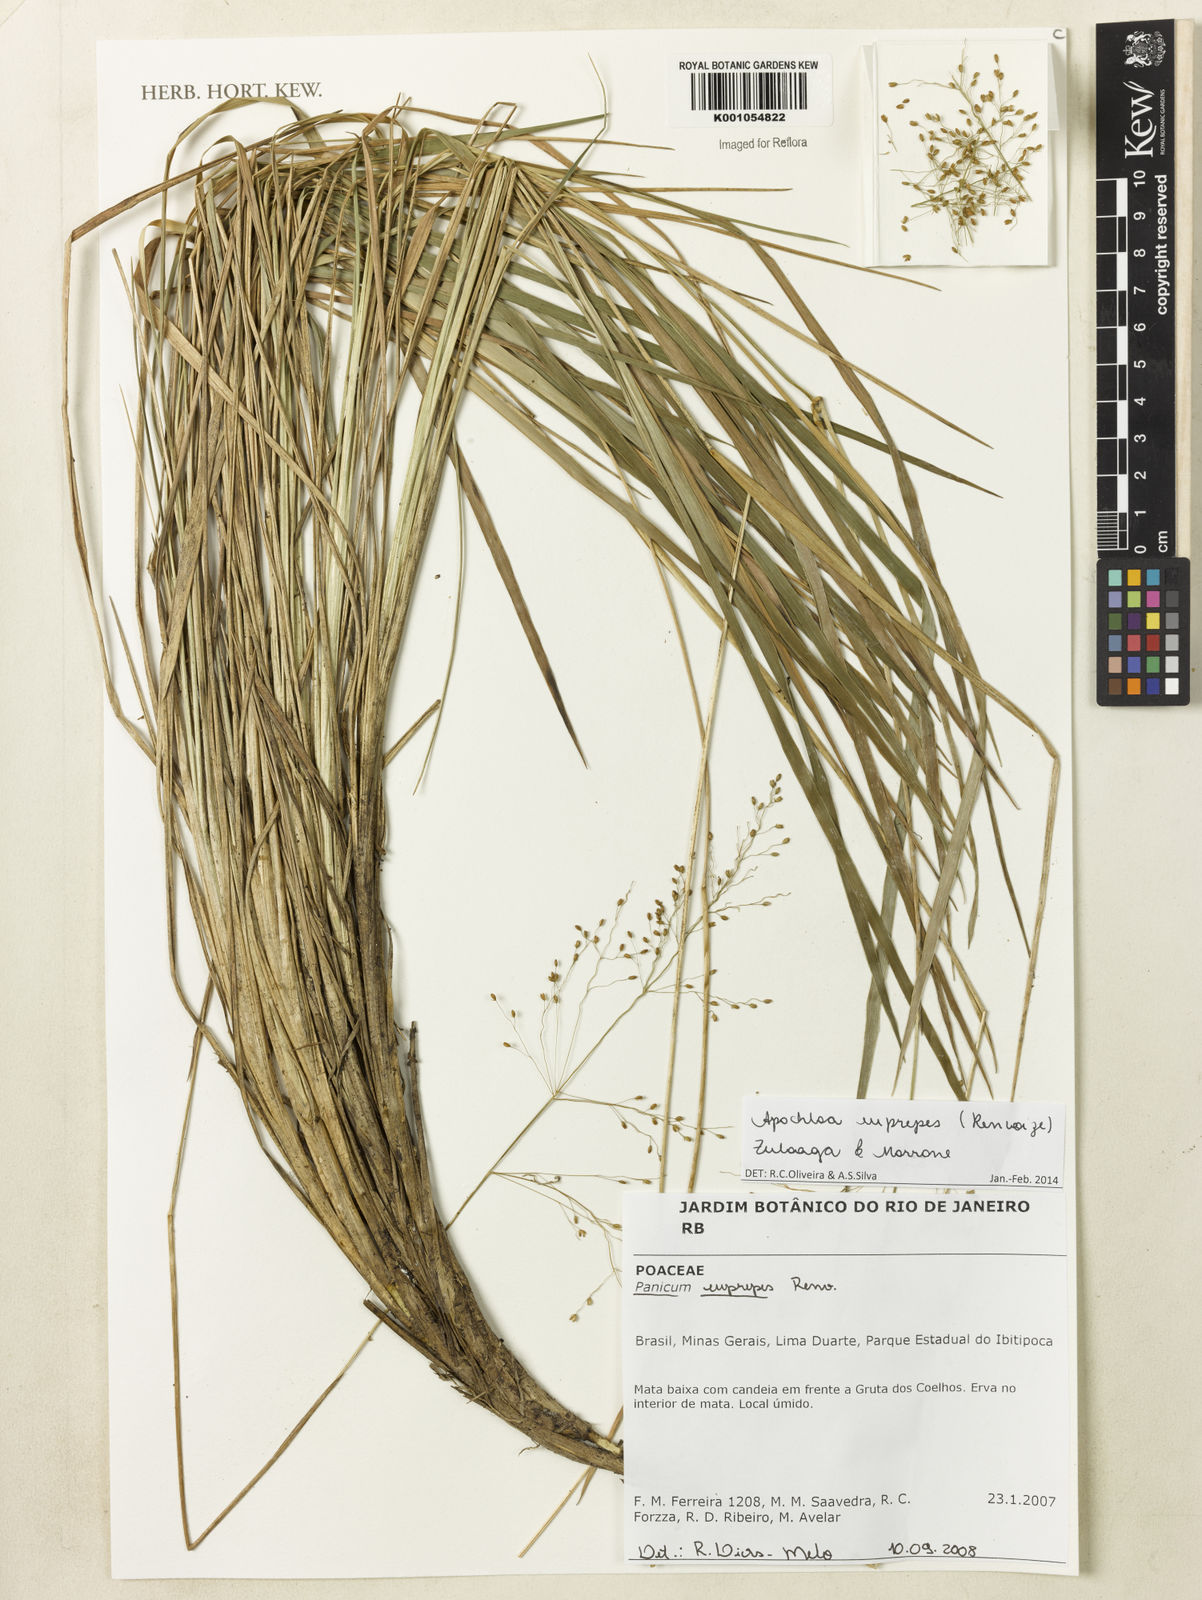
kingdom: Plantae
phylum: Tracheophyta
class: Liliopsida
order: Poales
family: Poaceae
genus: Apochloa
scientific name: Apochloa euprepes
